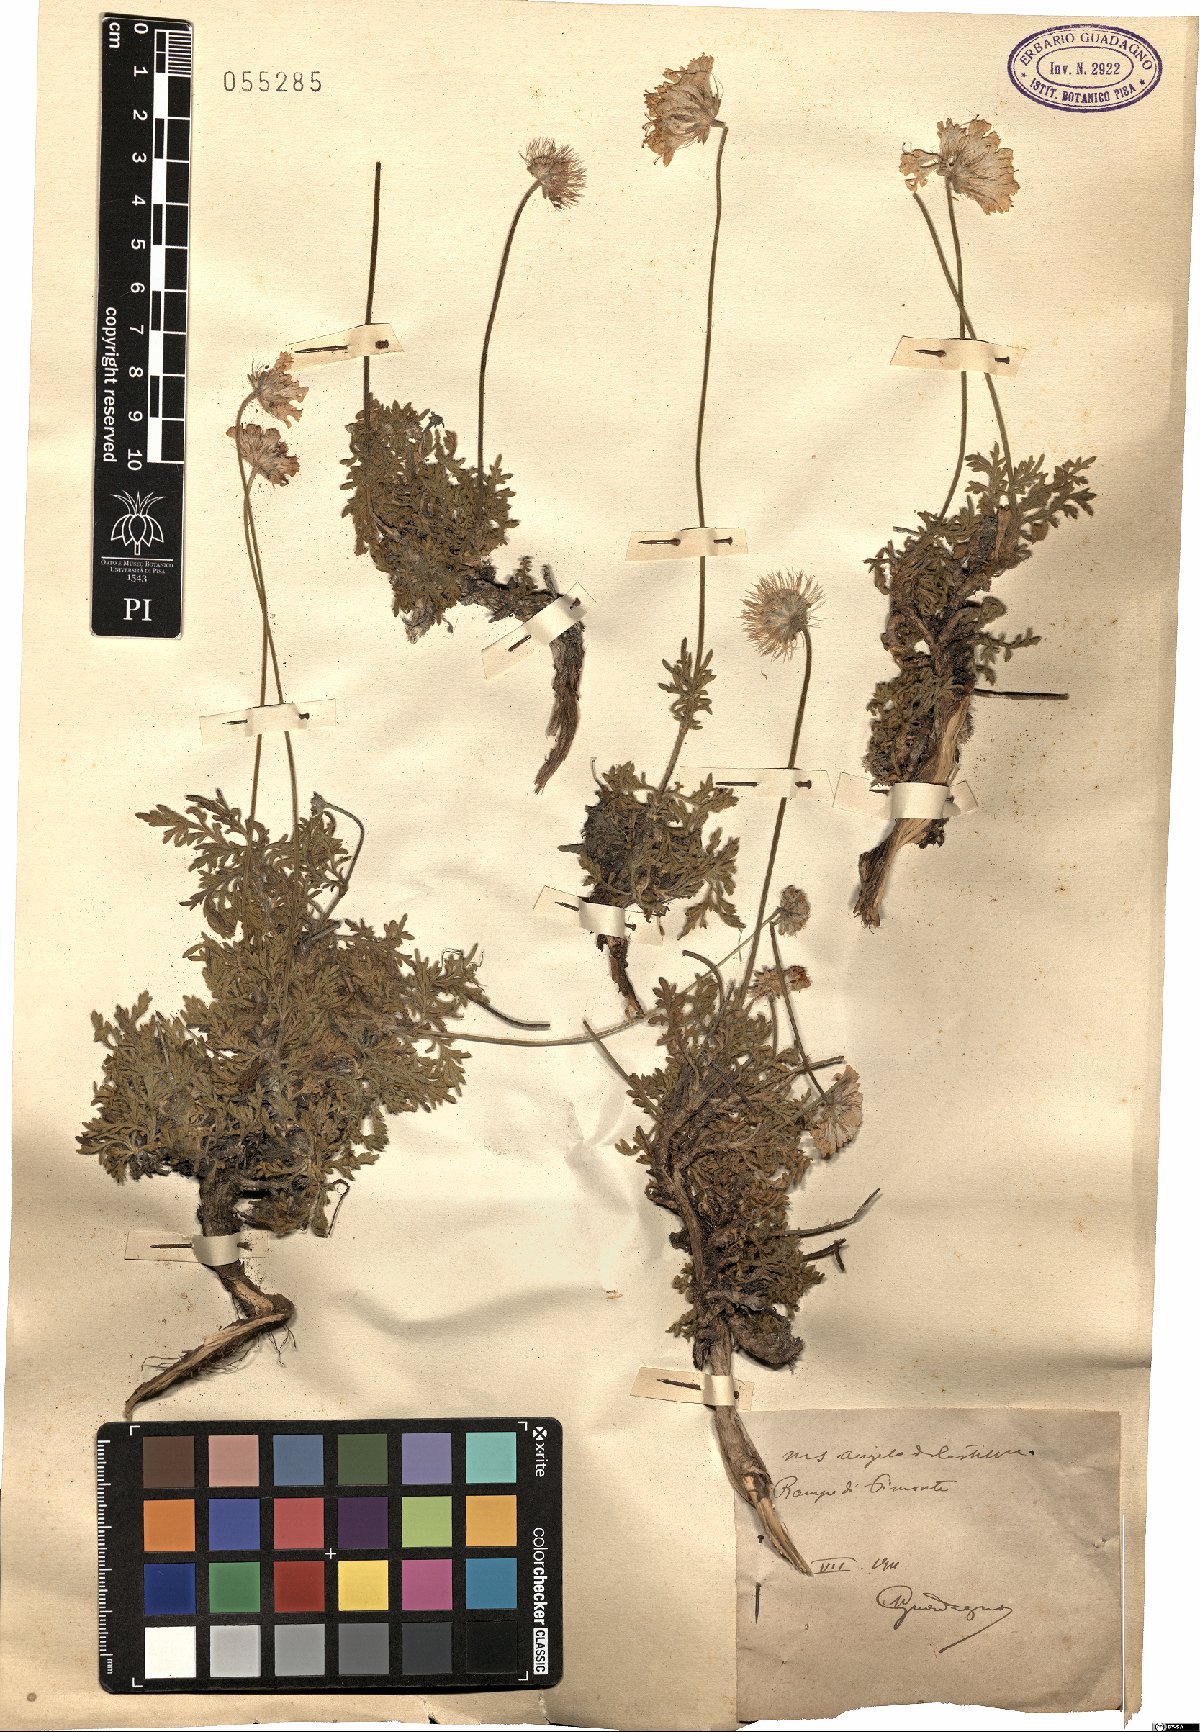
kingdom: Plantae
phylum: Tracheophyta
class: Magnoliopsida
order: Dipsacales
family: Caprifoliaceae
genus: Scabiosa
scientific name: Scabiosa
